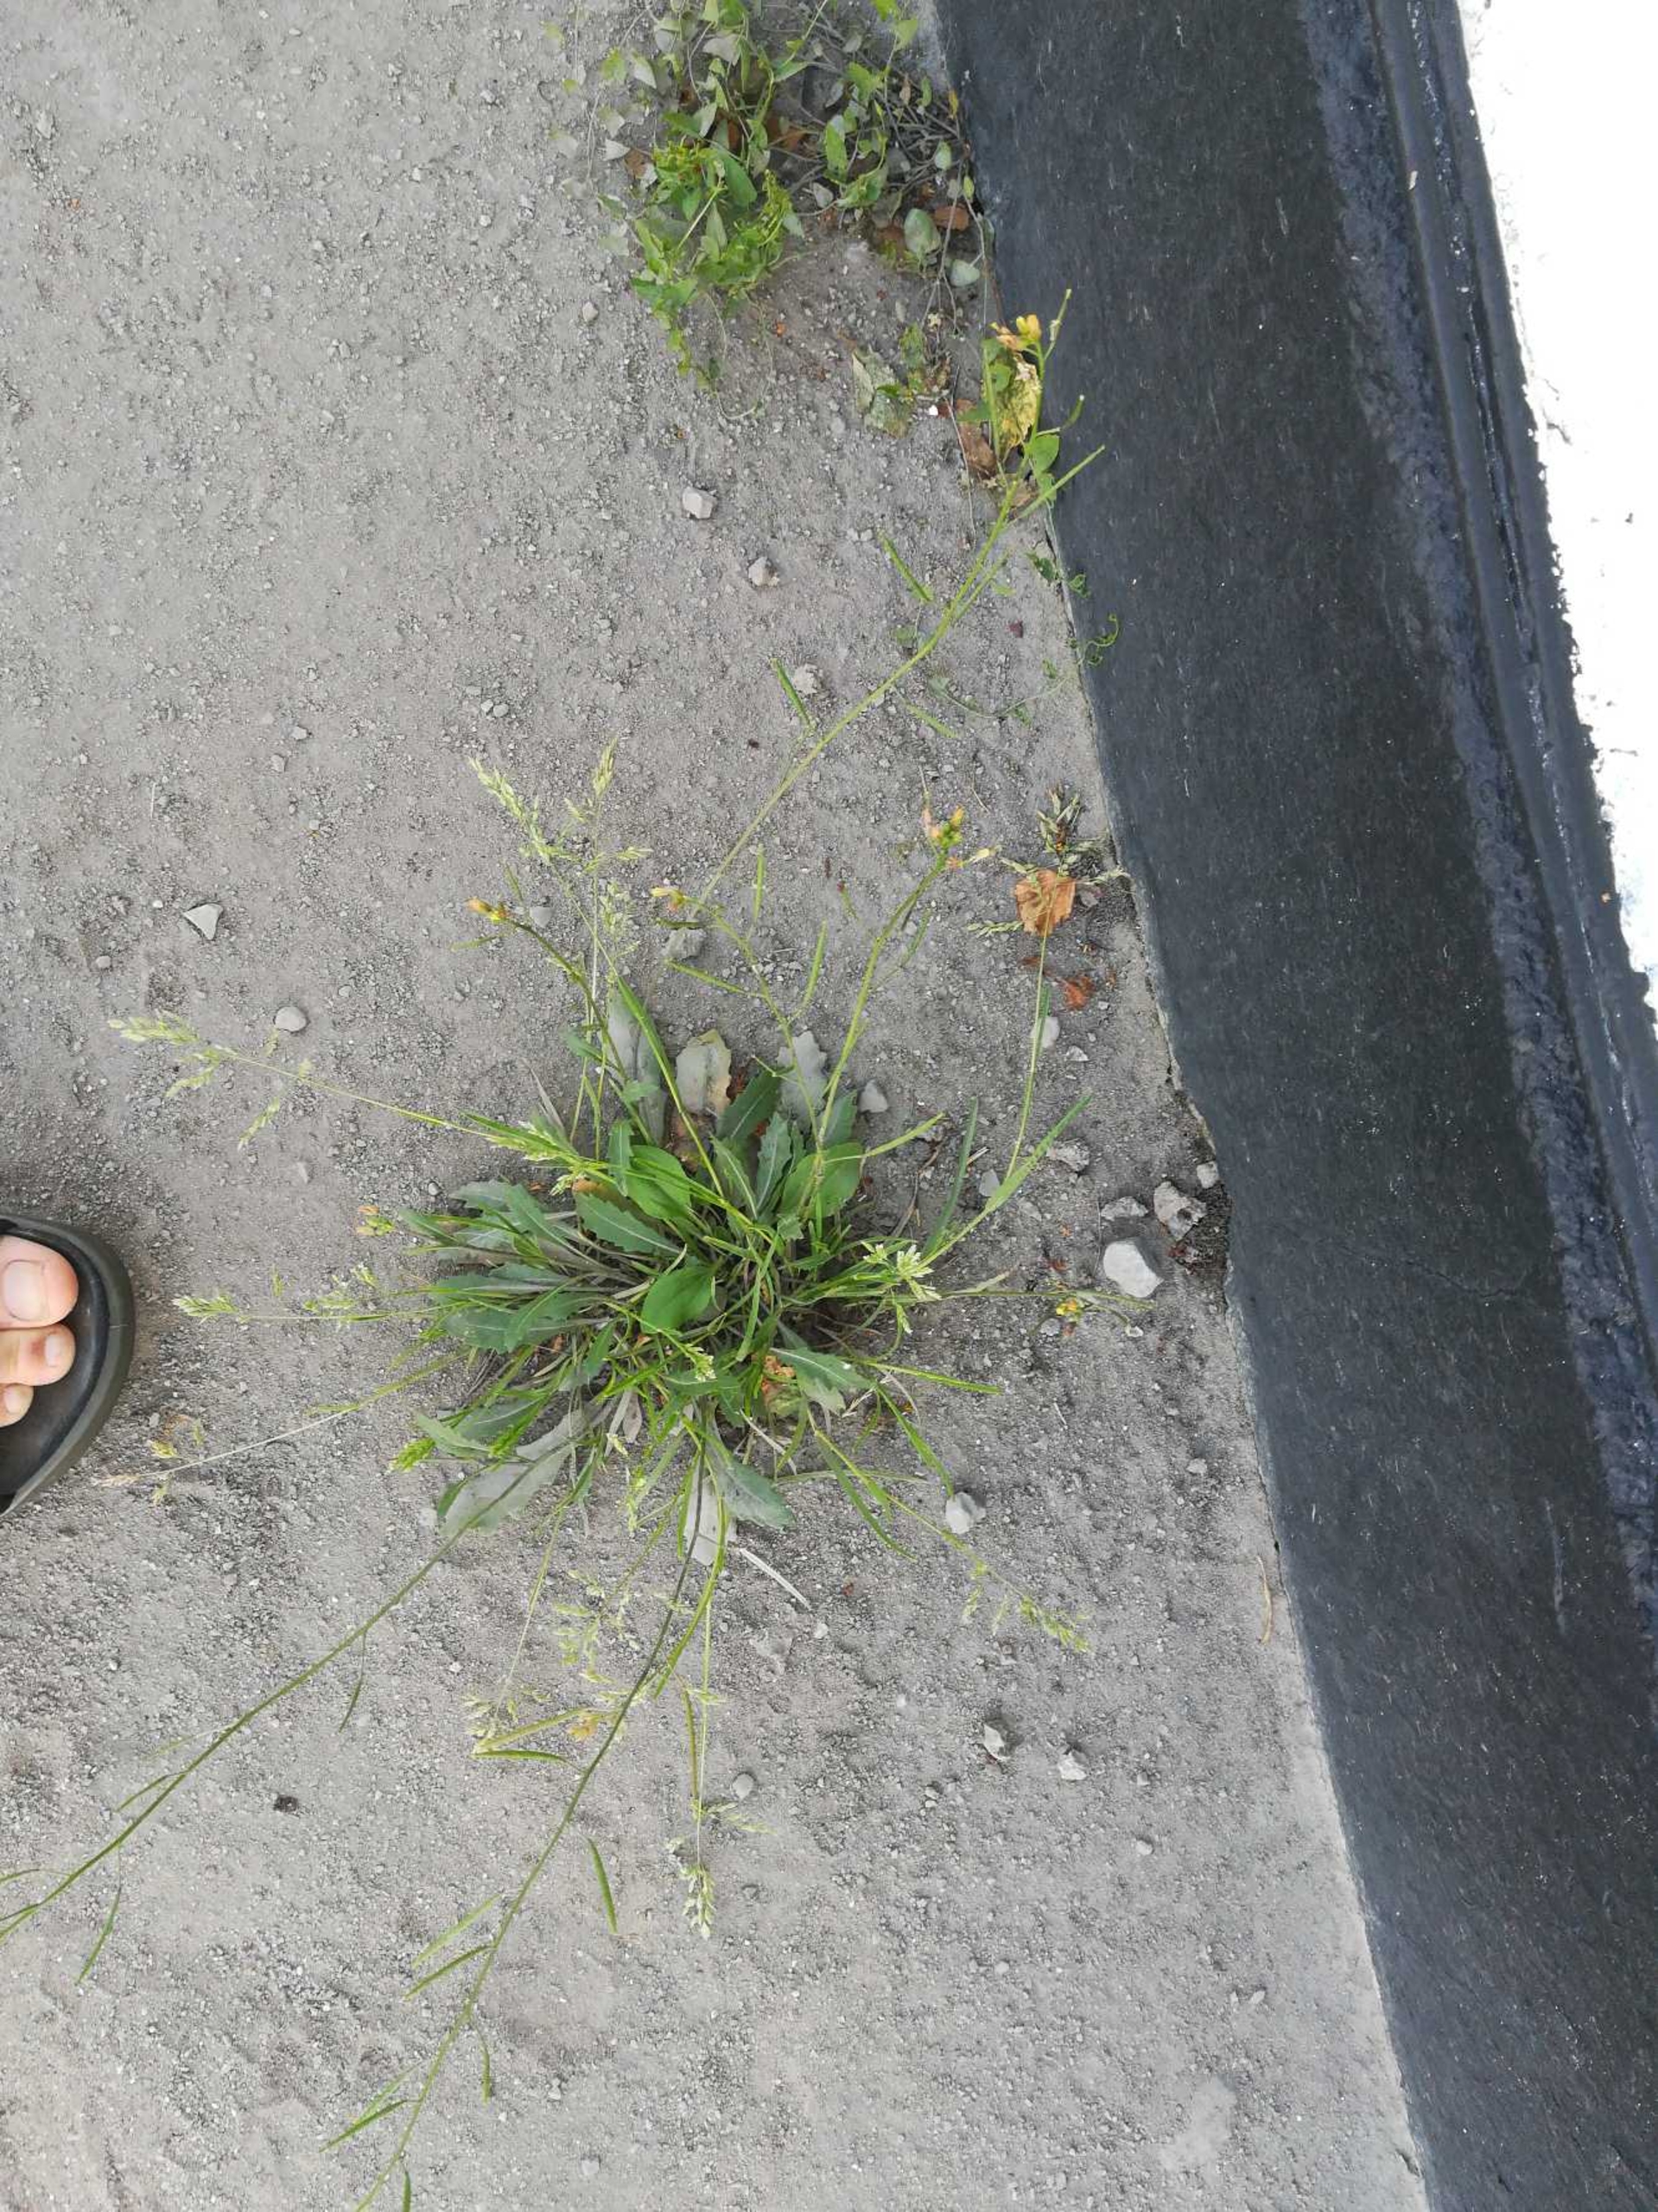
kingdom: Plantae
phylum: Tracheophyta
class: Magnoliopsida
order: Brassicales
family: Brassicaceae
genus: Diplotaxis
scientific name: Diplotaxis muralis
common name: Mursennep
